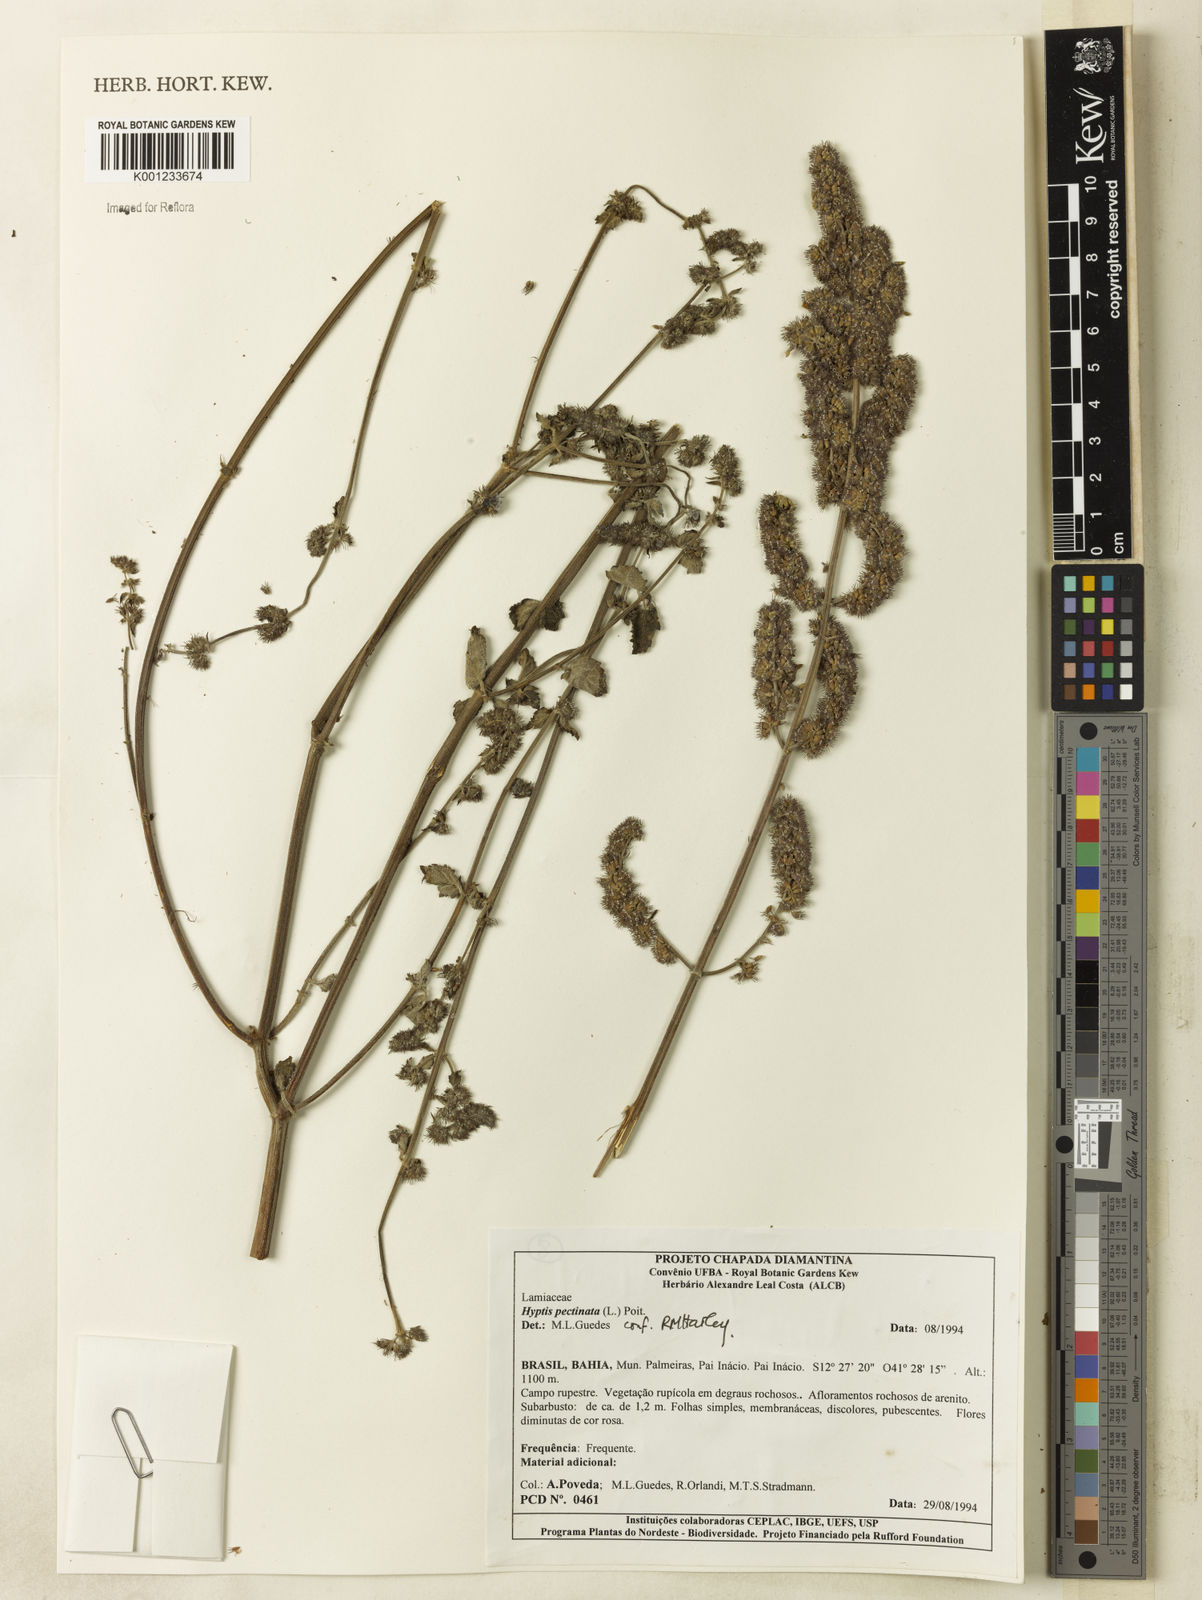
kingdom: Plantae
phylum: Tracheophyta
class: Magnoliopsida
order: Lamiales
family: Lamiaceae
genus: Mesosphaerum
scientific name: Mesosphaerum pectinatum
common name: Comb hyptis
